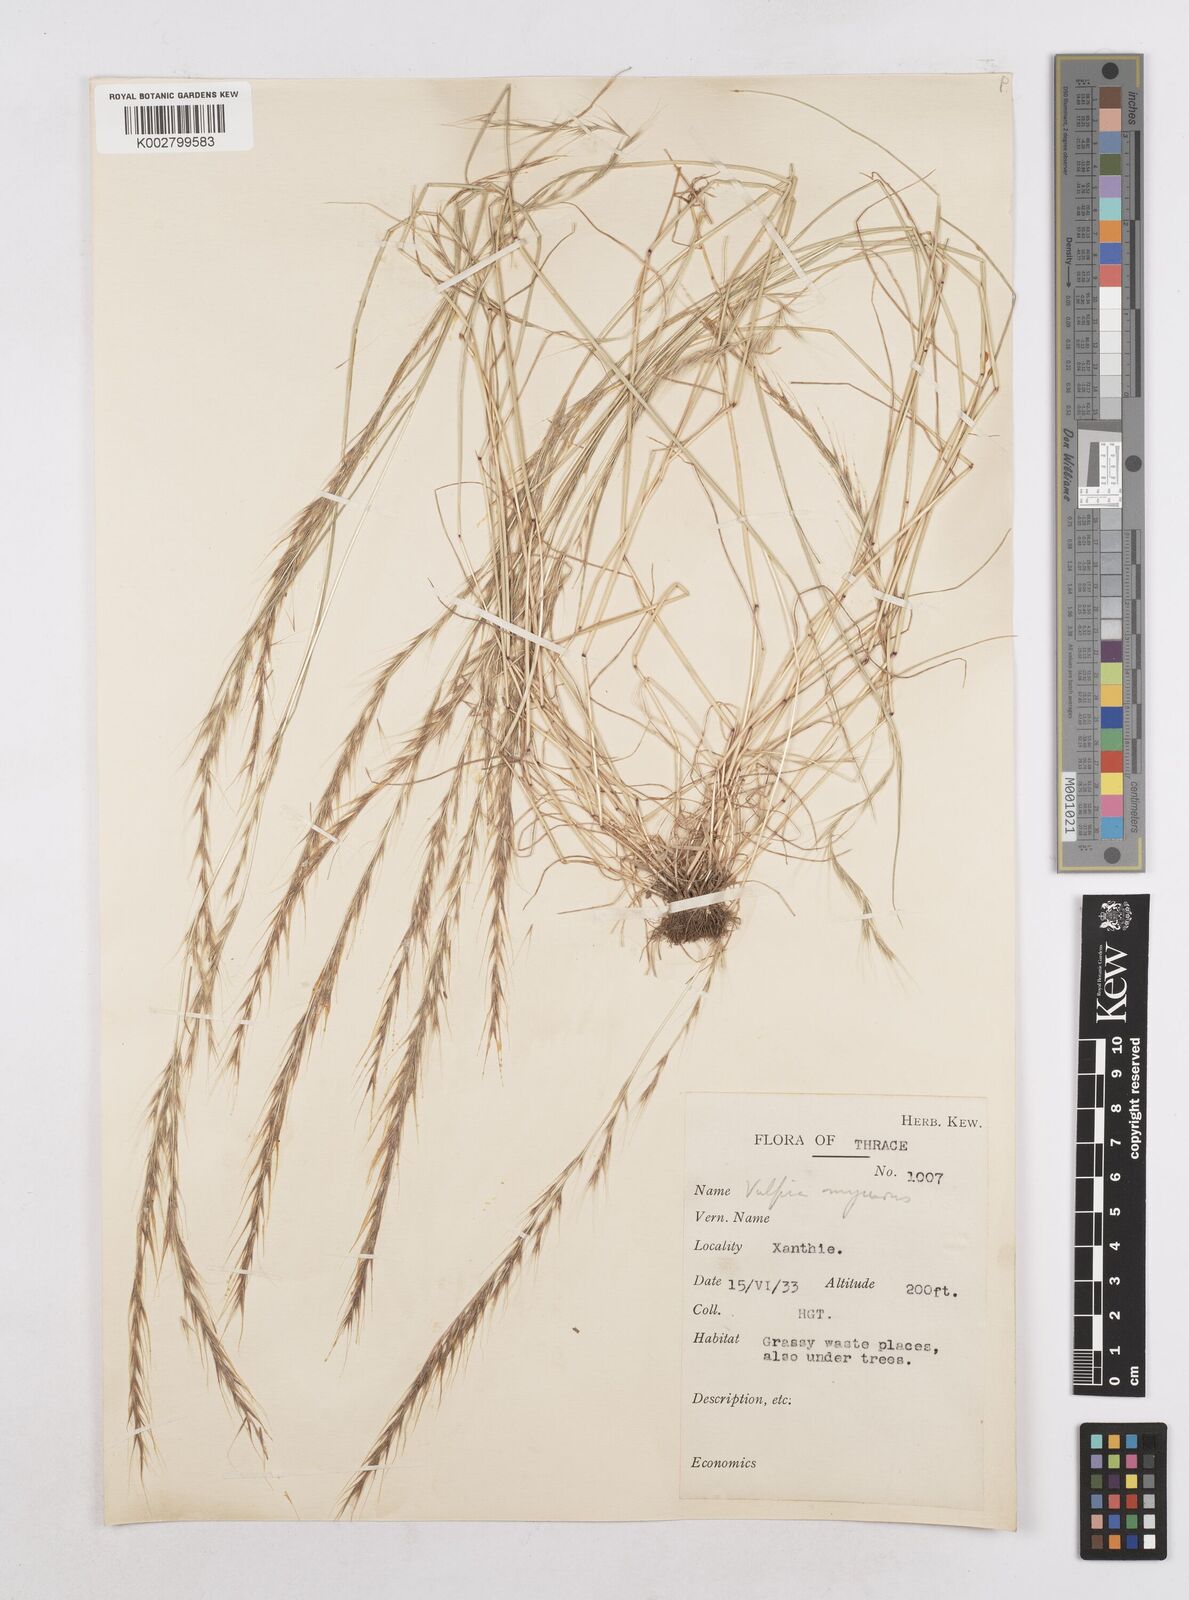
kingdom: Plantae
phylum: Tracheophyta
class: Liliopsida
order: Poales
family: Poaceae
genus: Festuca
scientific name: Festuca myuros
